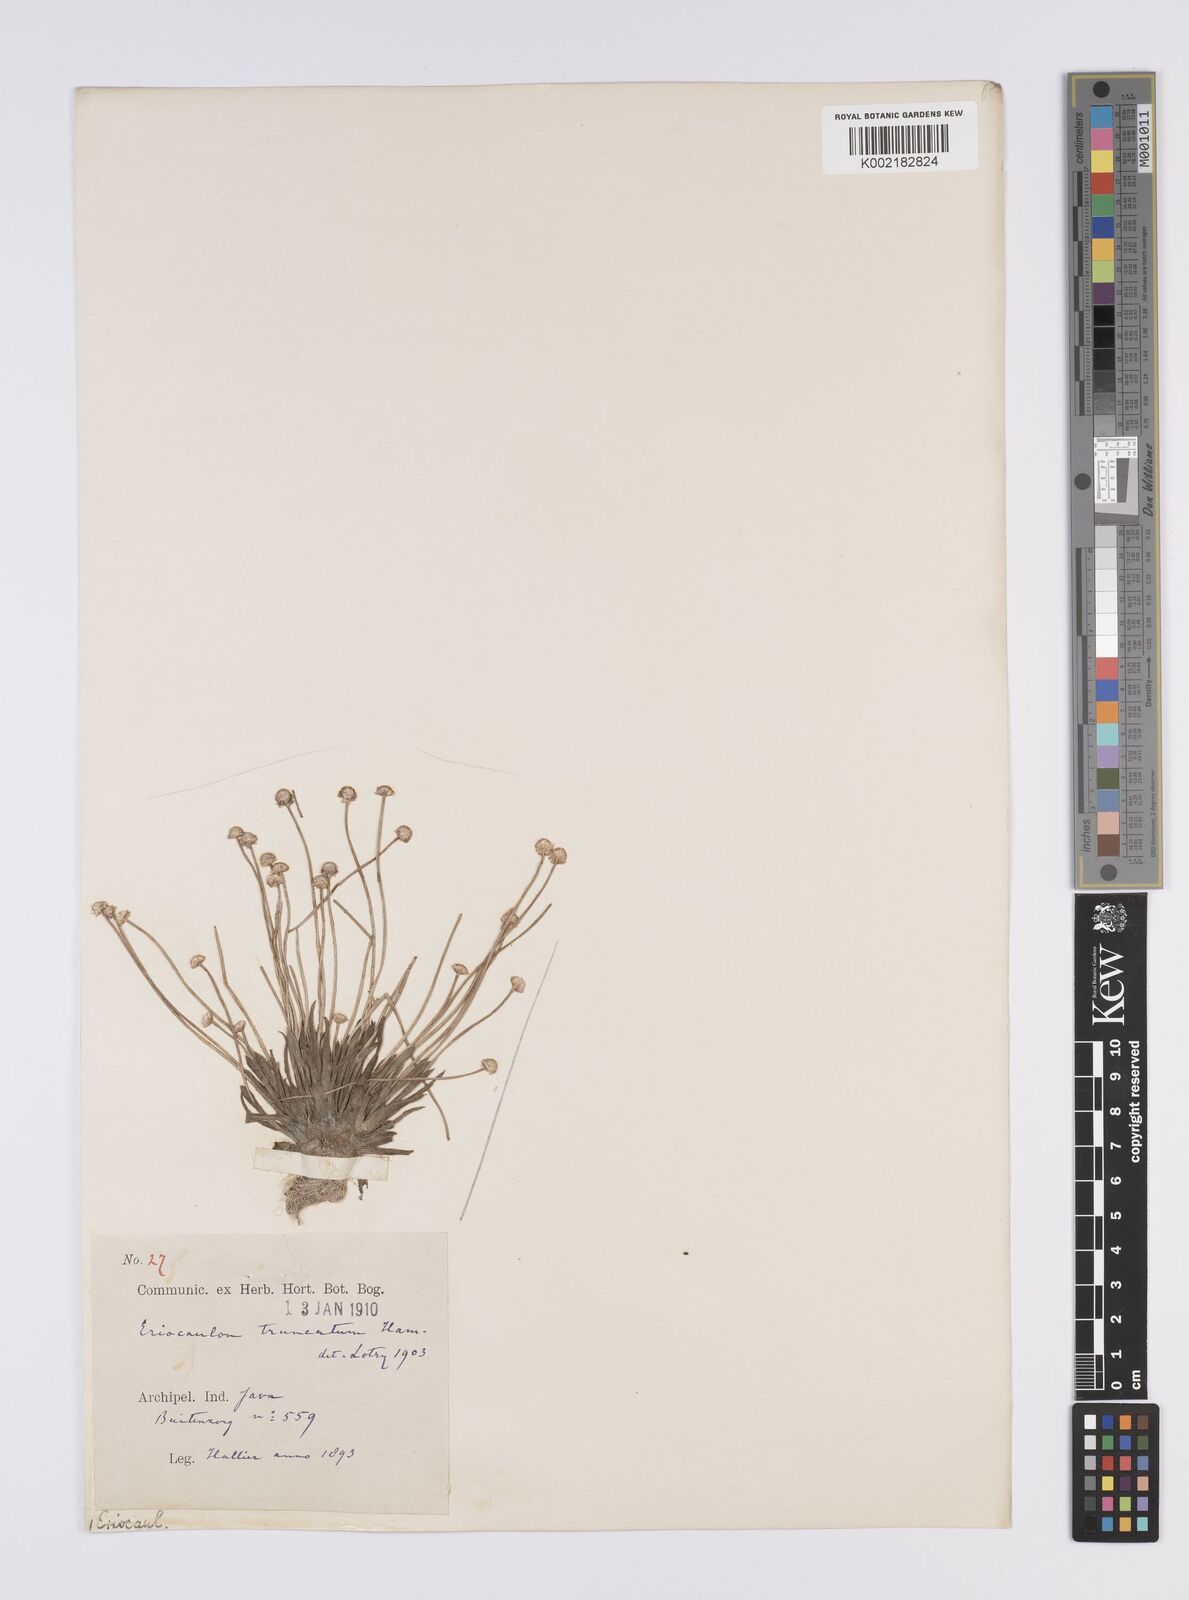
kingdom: Plantae
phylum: Tracheophyta
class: Liliopsida
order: Poales
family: Eriocaulaceae
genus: Eriocaulon
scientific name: Eriocaulon truncatum
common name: Short pipe-wort
